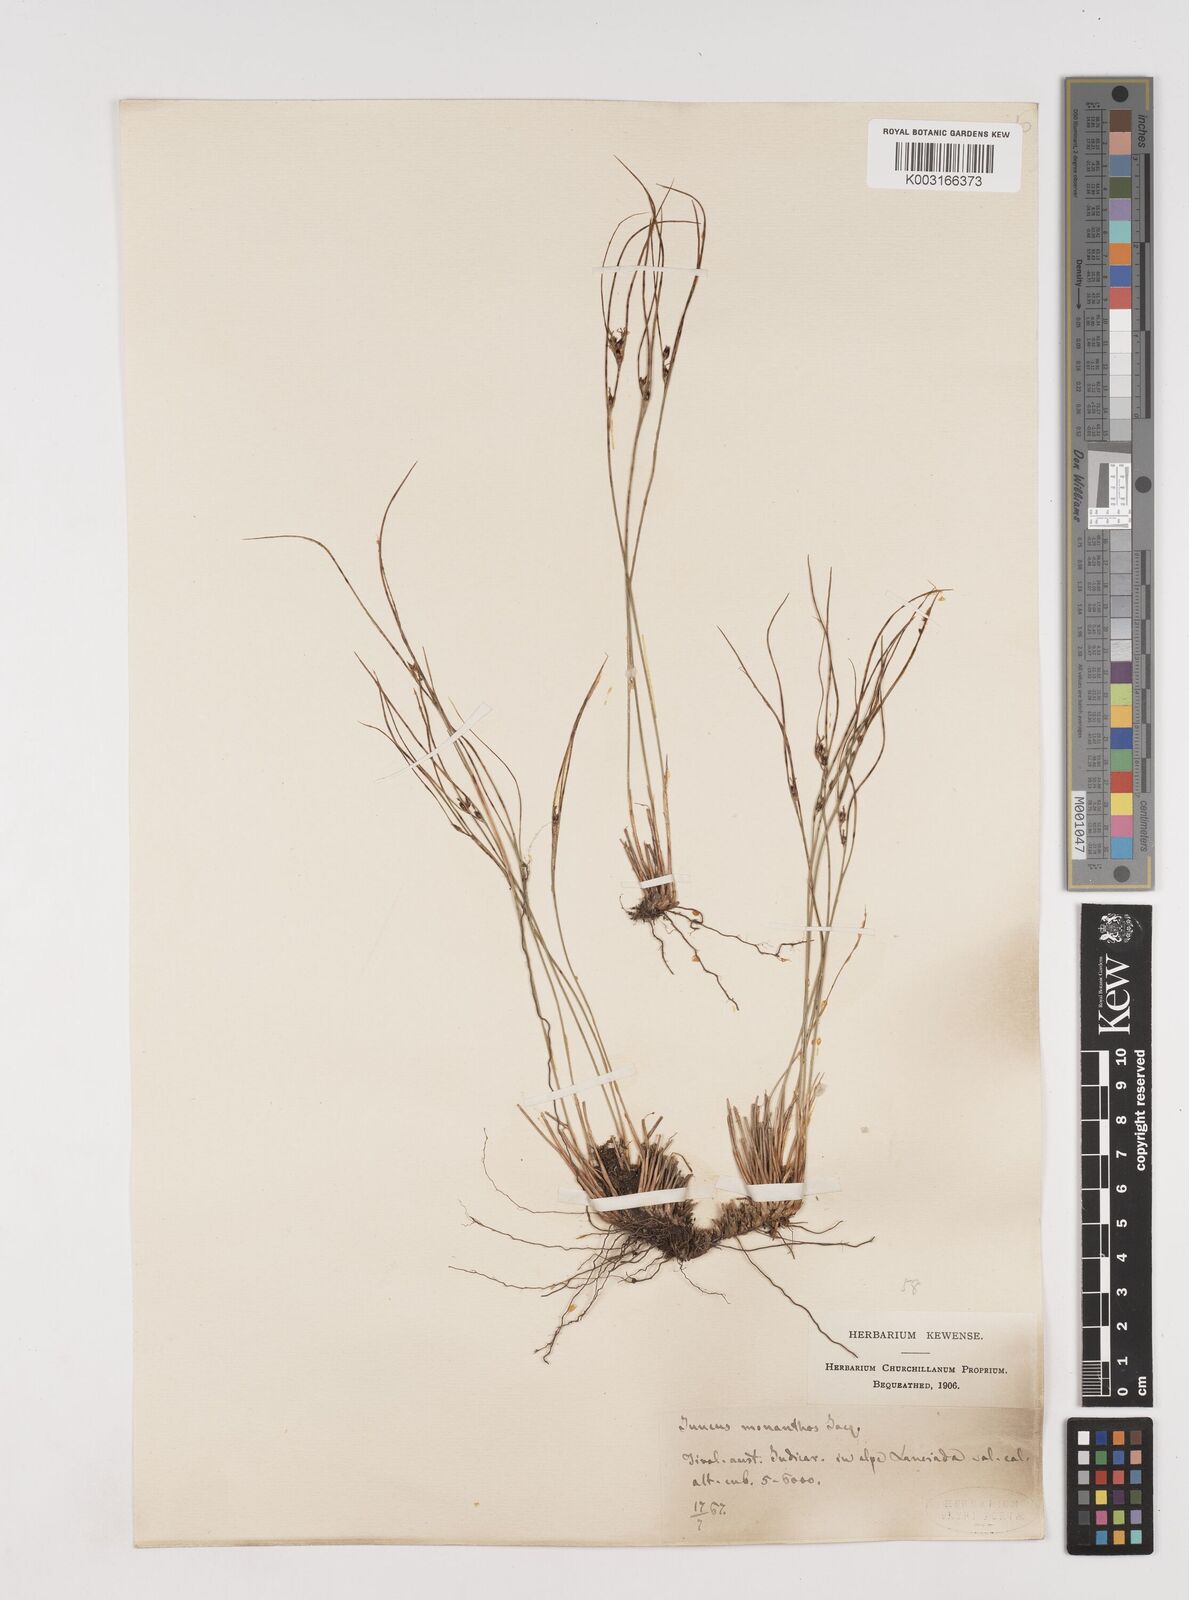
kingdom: Plantae
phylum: Tracheophyta
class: Liliopsida
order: Poales
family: Juncaceae
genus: Oreojuncus
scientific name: Oreojuncus trifidus
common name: Highland rush
